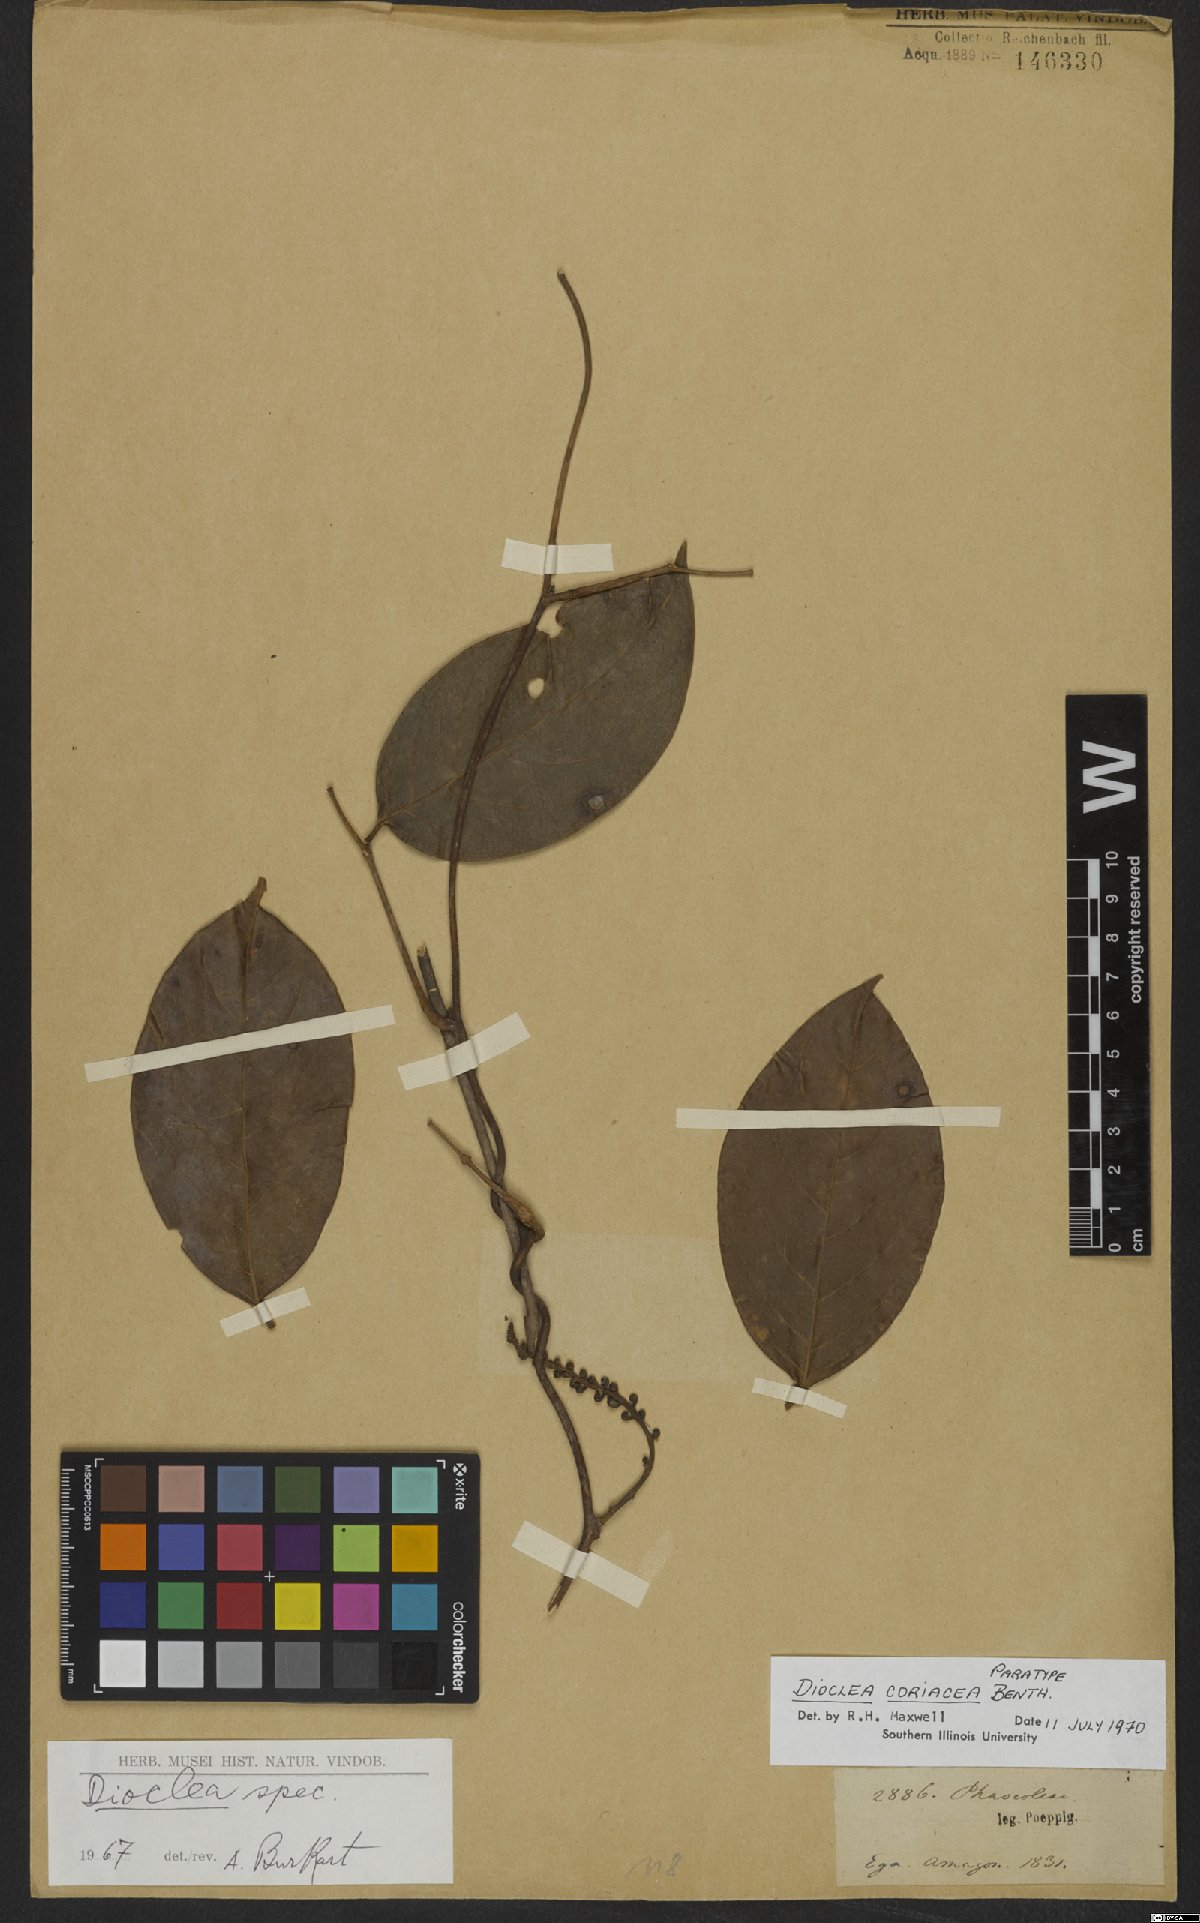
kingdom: Plantae
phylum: Tracheophyta
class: Magnoliopsida
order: Fabales
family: Fabaceae
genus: Macropsychanthus
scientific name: Macropsychanthus coriaceus
